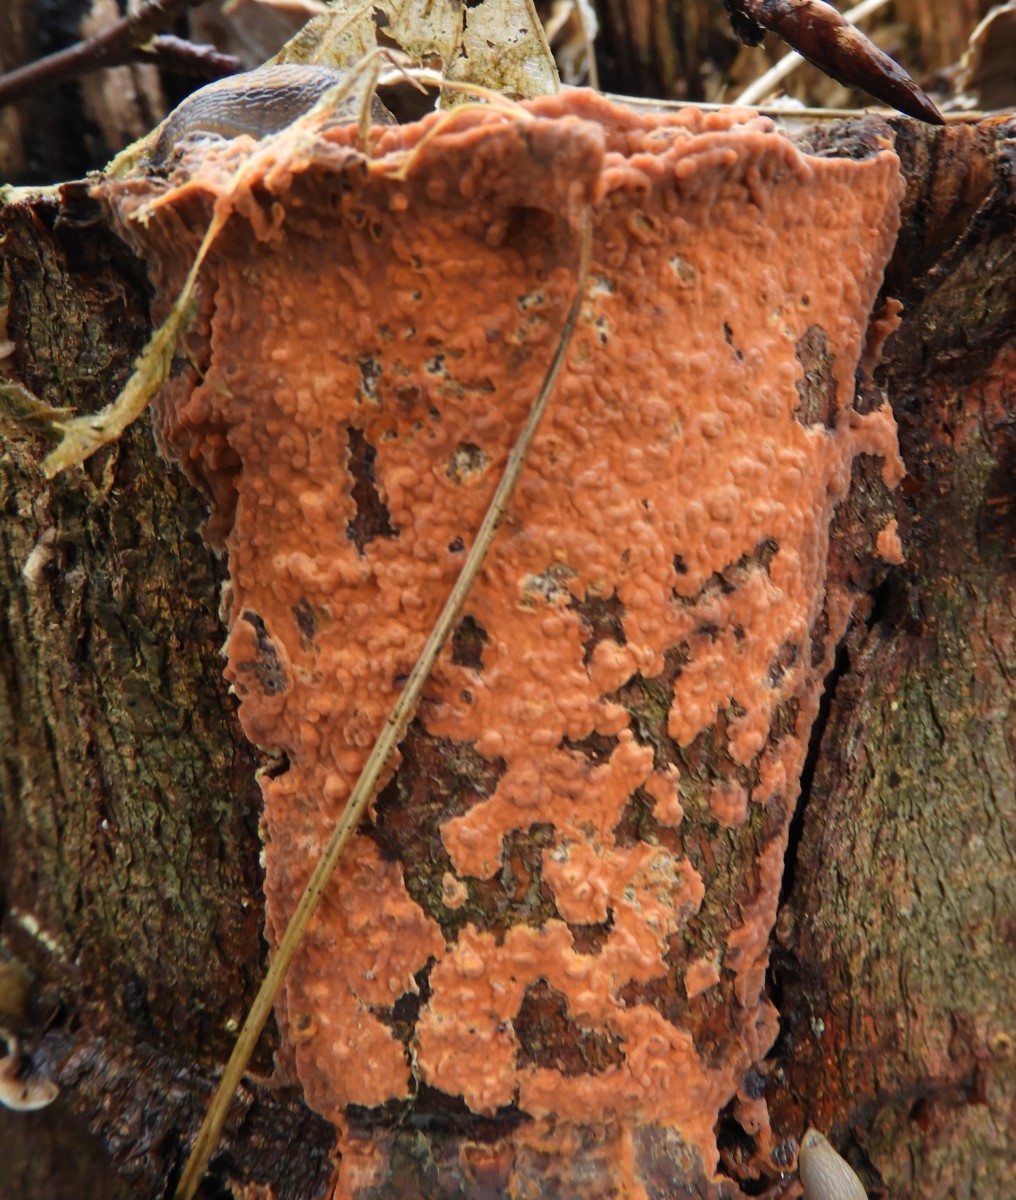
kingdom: Fungi
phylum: Basidiomycota
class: Agaricomycetes
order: Russulales
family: Peniophoraceae
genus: Peniophora
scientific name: Peniophora incarnata
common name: laksefarvet voksskind
